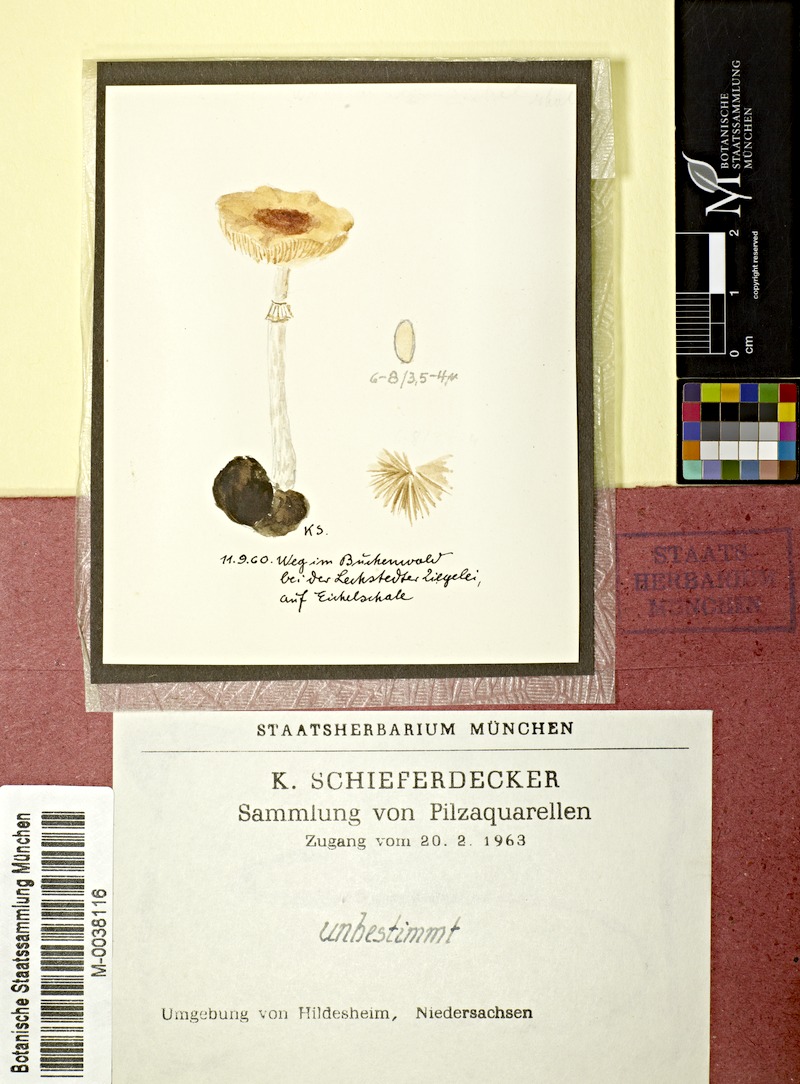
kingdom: Fungi
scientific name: Fungi
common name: Fungi
